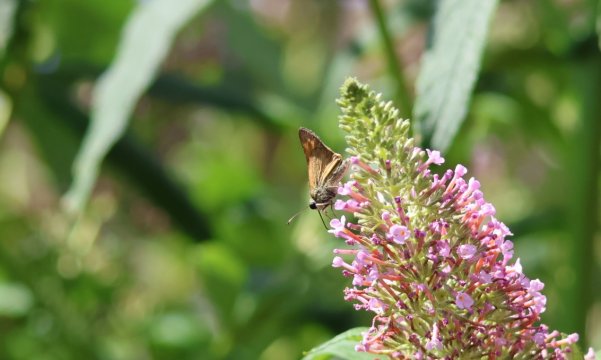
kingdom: Animalia
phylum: Arthropoda
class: Insecta
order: Lepidoptera
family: Hesperiidae
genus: Copaeodes
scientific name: Copaeodes aurantiaca
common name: Orange Skipperling
